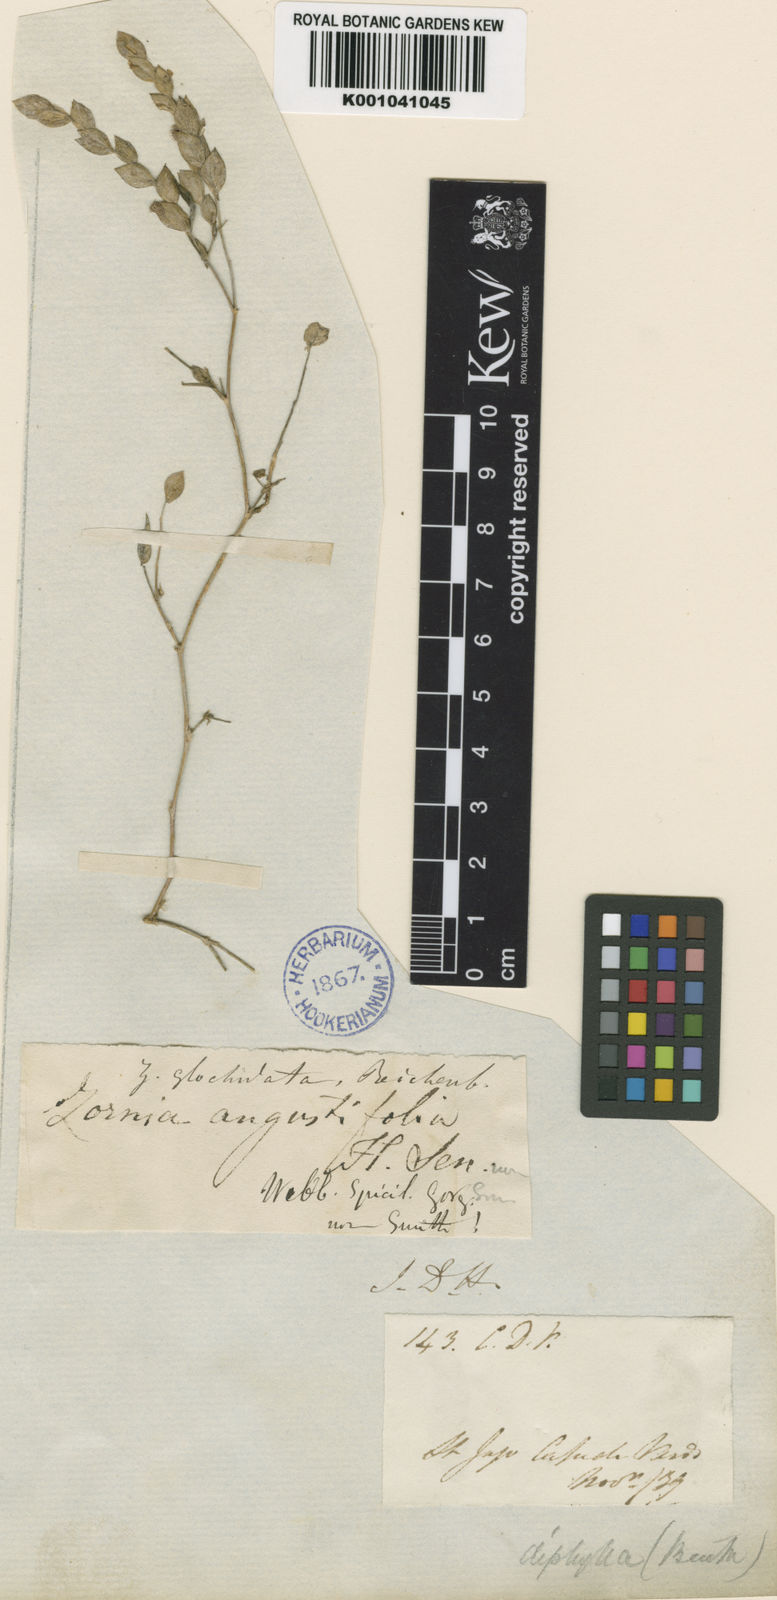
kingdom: Plantae
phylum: Tracheophyta
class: Magnoliopsida
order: Fabales
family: Fabaceae
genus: Zornia
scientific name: Zornia glochidiata
